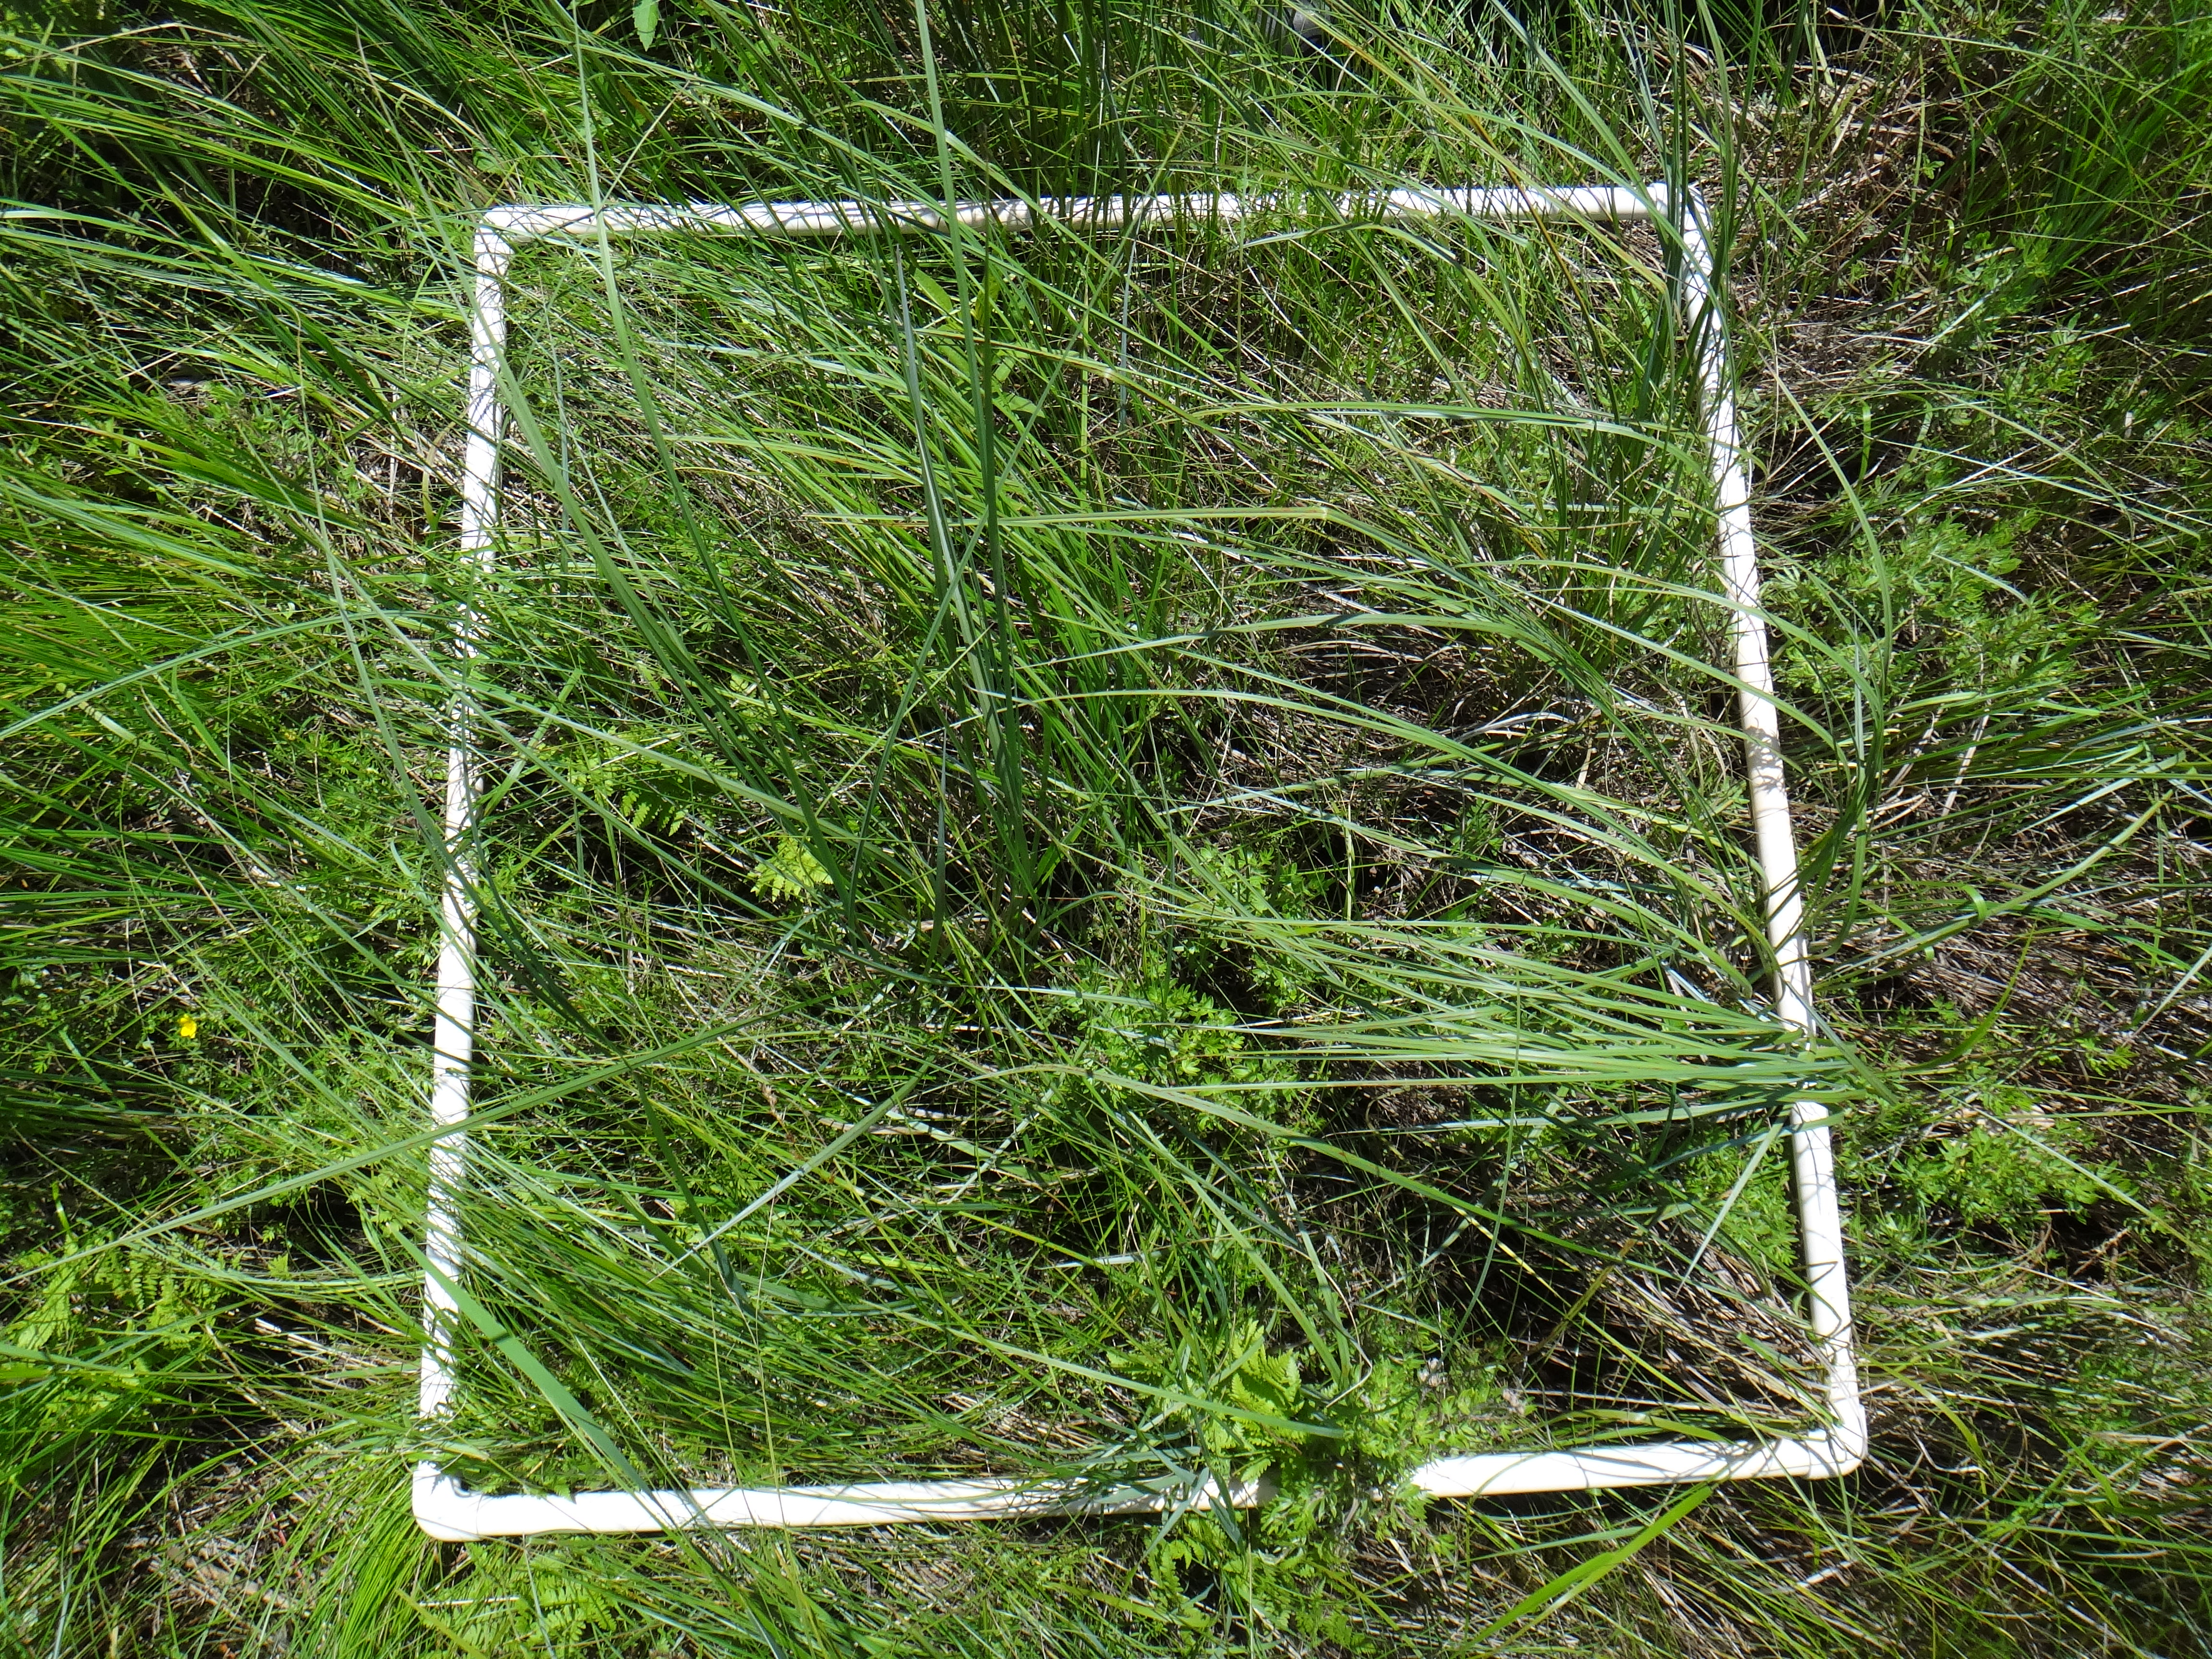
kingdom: Plantae
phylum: Tracheophyta
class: Liliopsida
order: Poales
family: Cyperaceae
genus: Carex
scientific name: Carex lasiocarpa
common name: Slender sedge
